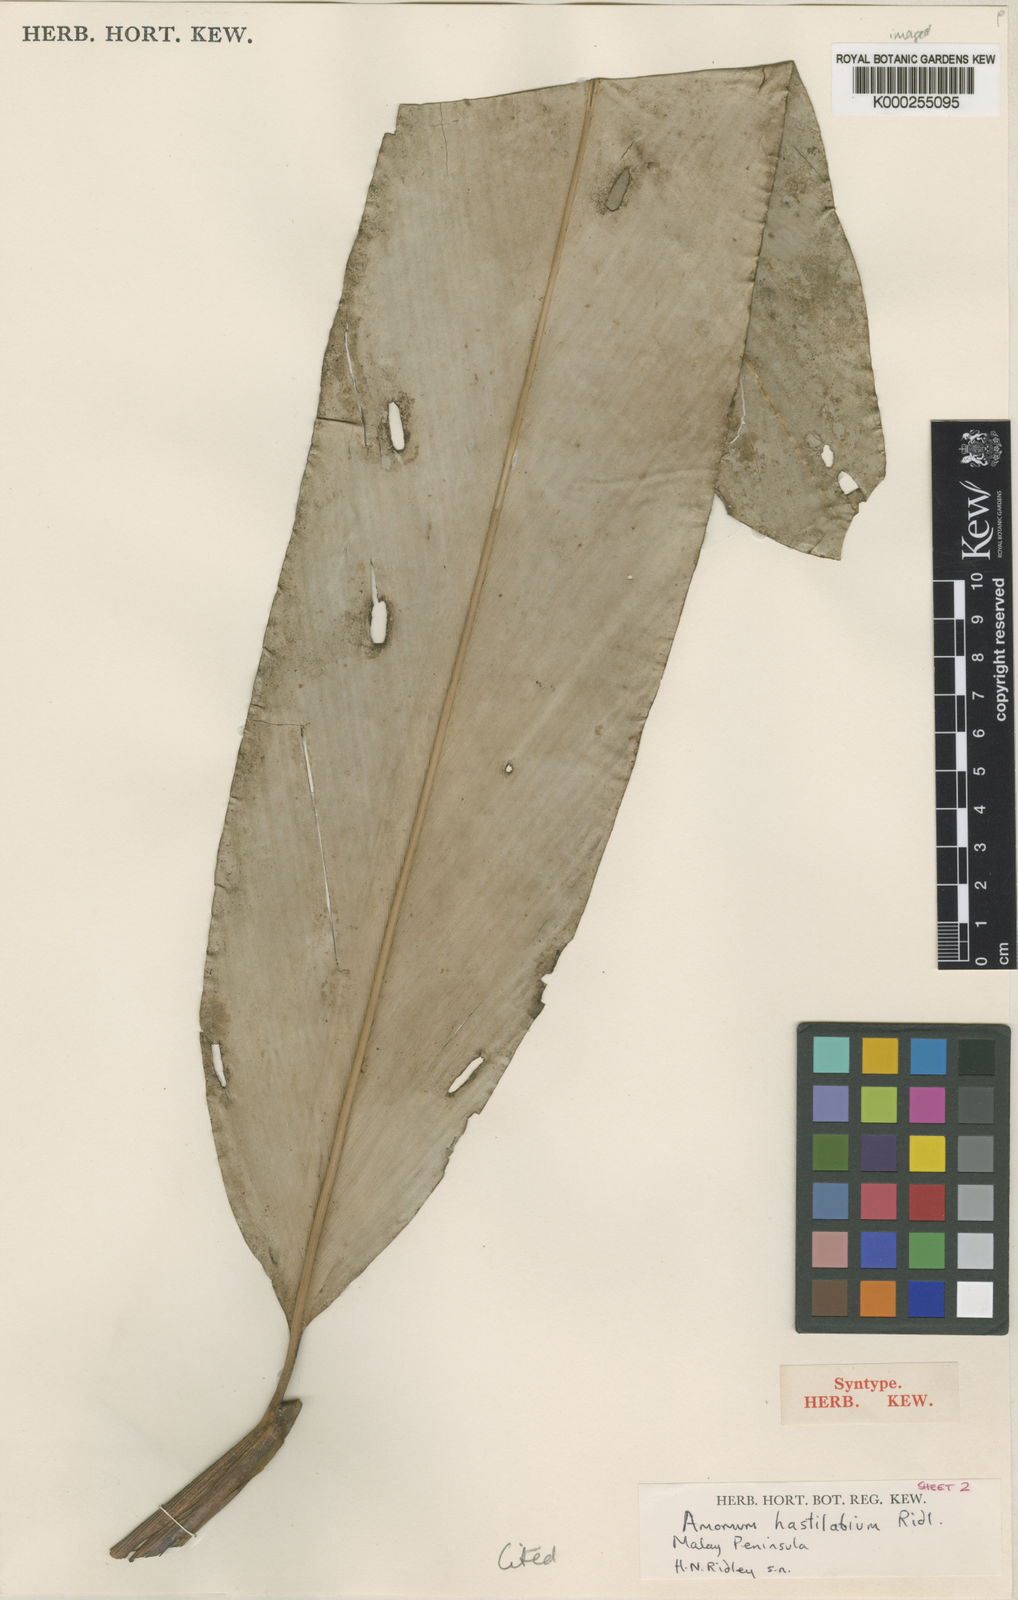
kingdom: Plantae
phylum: Tracheophyta
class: Liliopsida
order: Zingiberales
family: Zingiberaceae
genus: Sundamomum
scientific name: Sundamomum hastilabium
